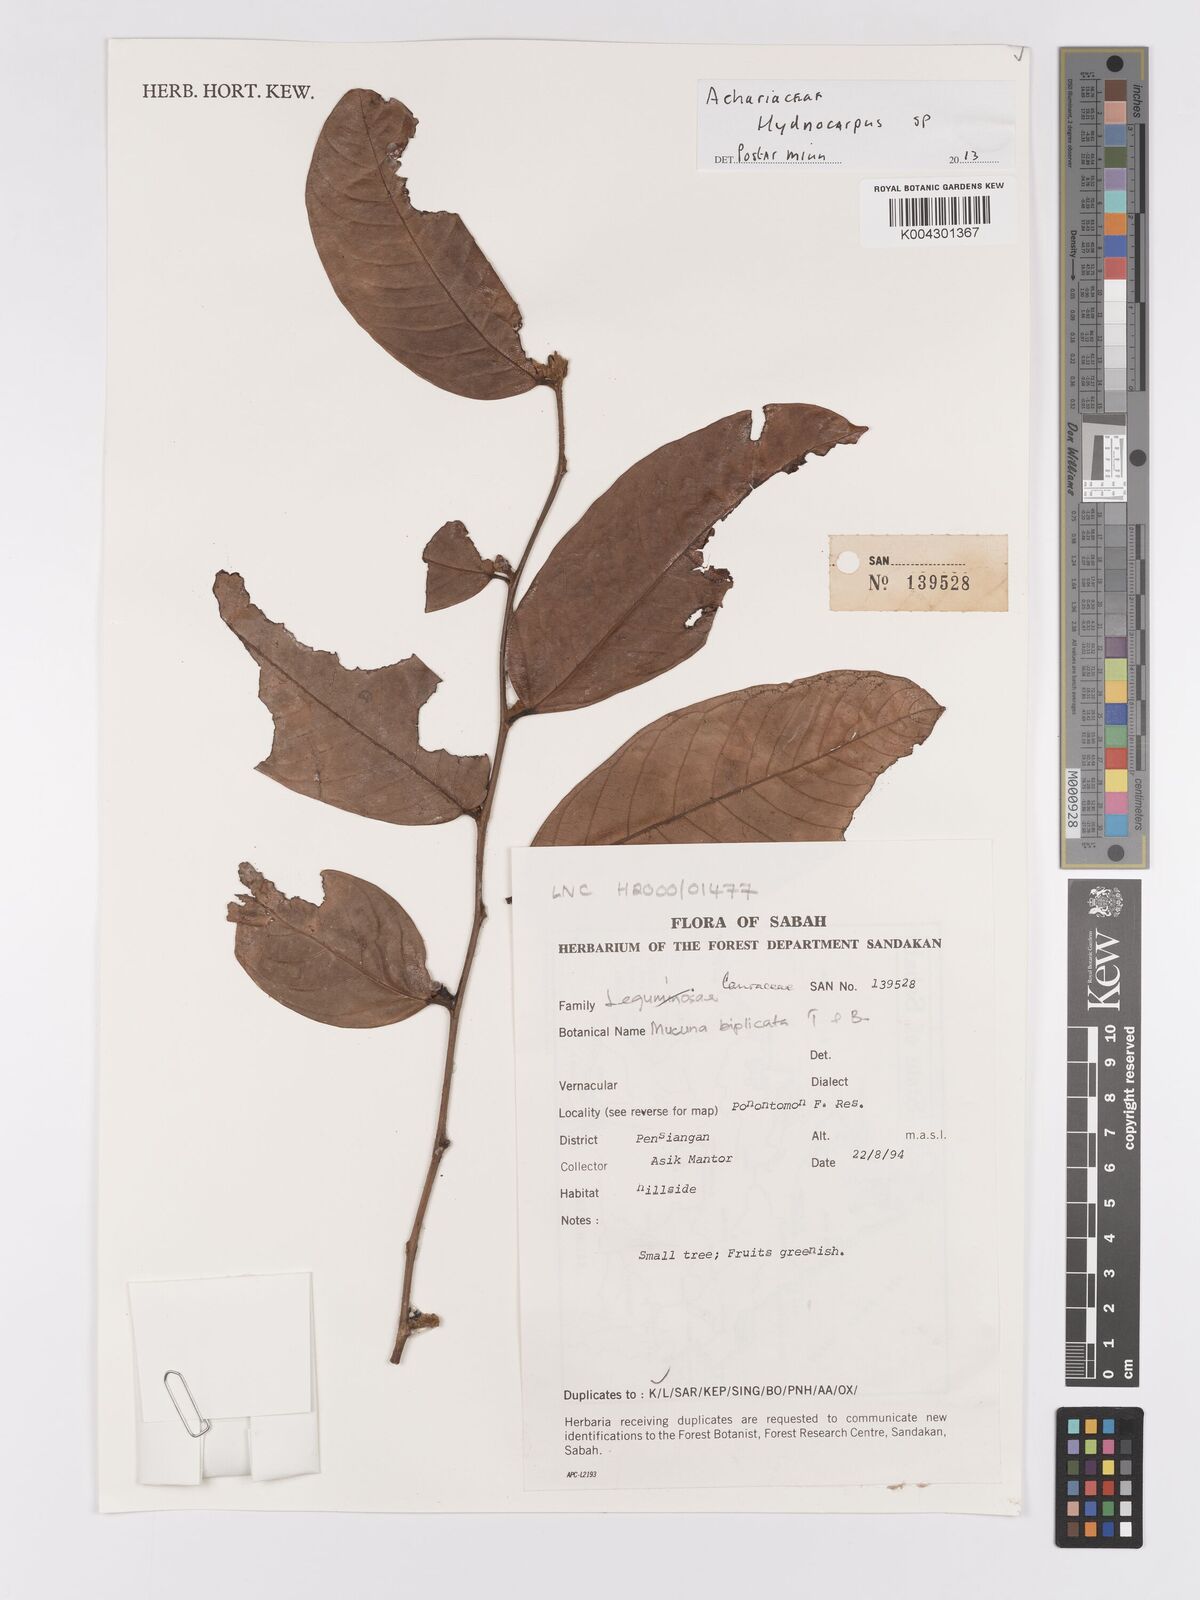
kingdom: Plantae
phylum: Tracheophyta
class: Magnoliopsida
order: Malpighiales
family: Achariaceae
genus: Hydnocarpus
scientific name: Hydnocarpus
